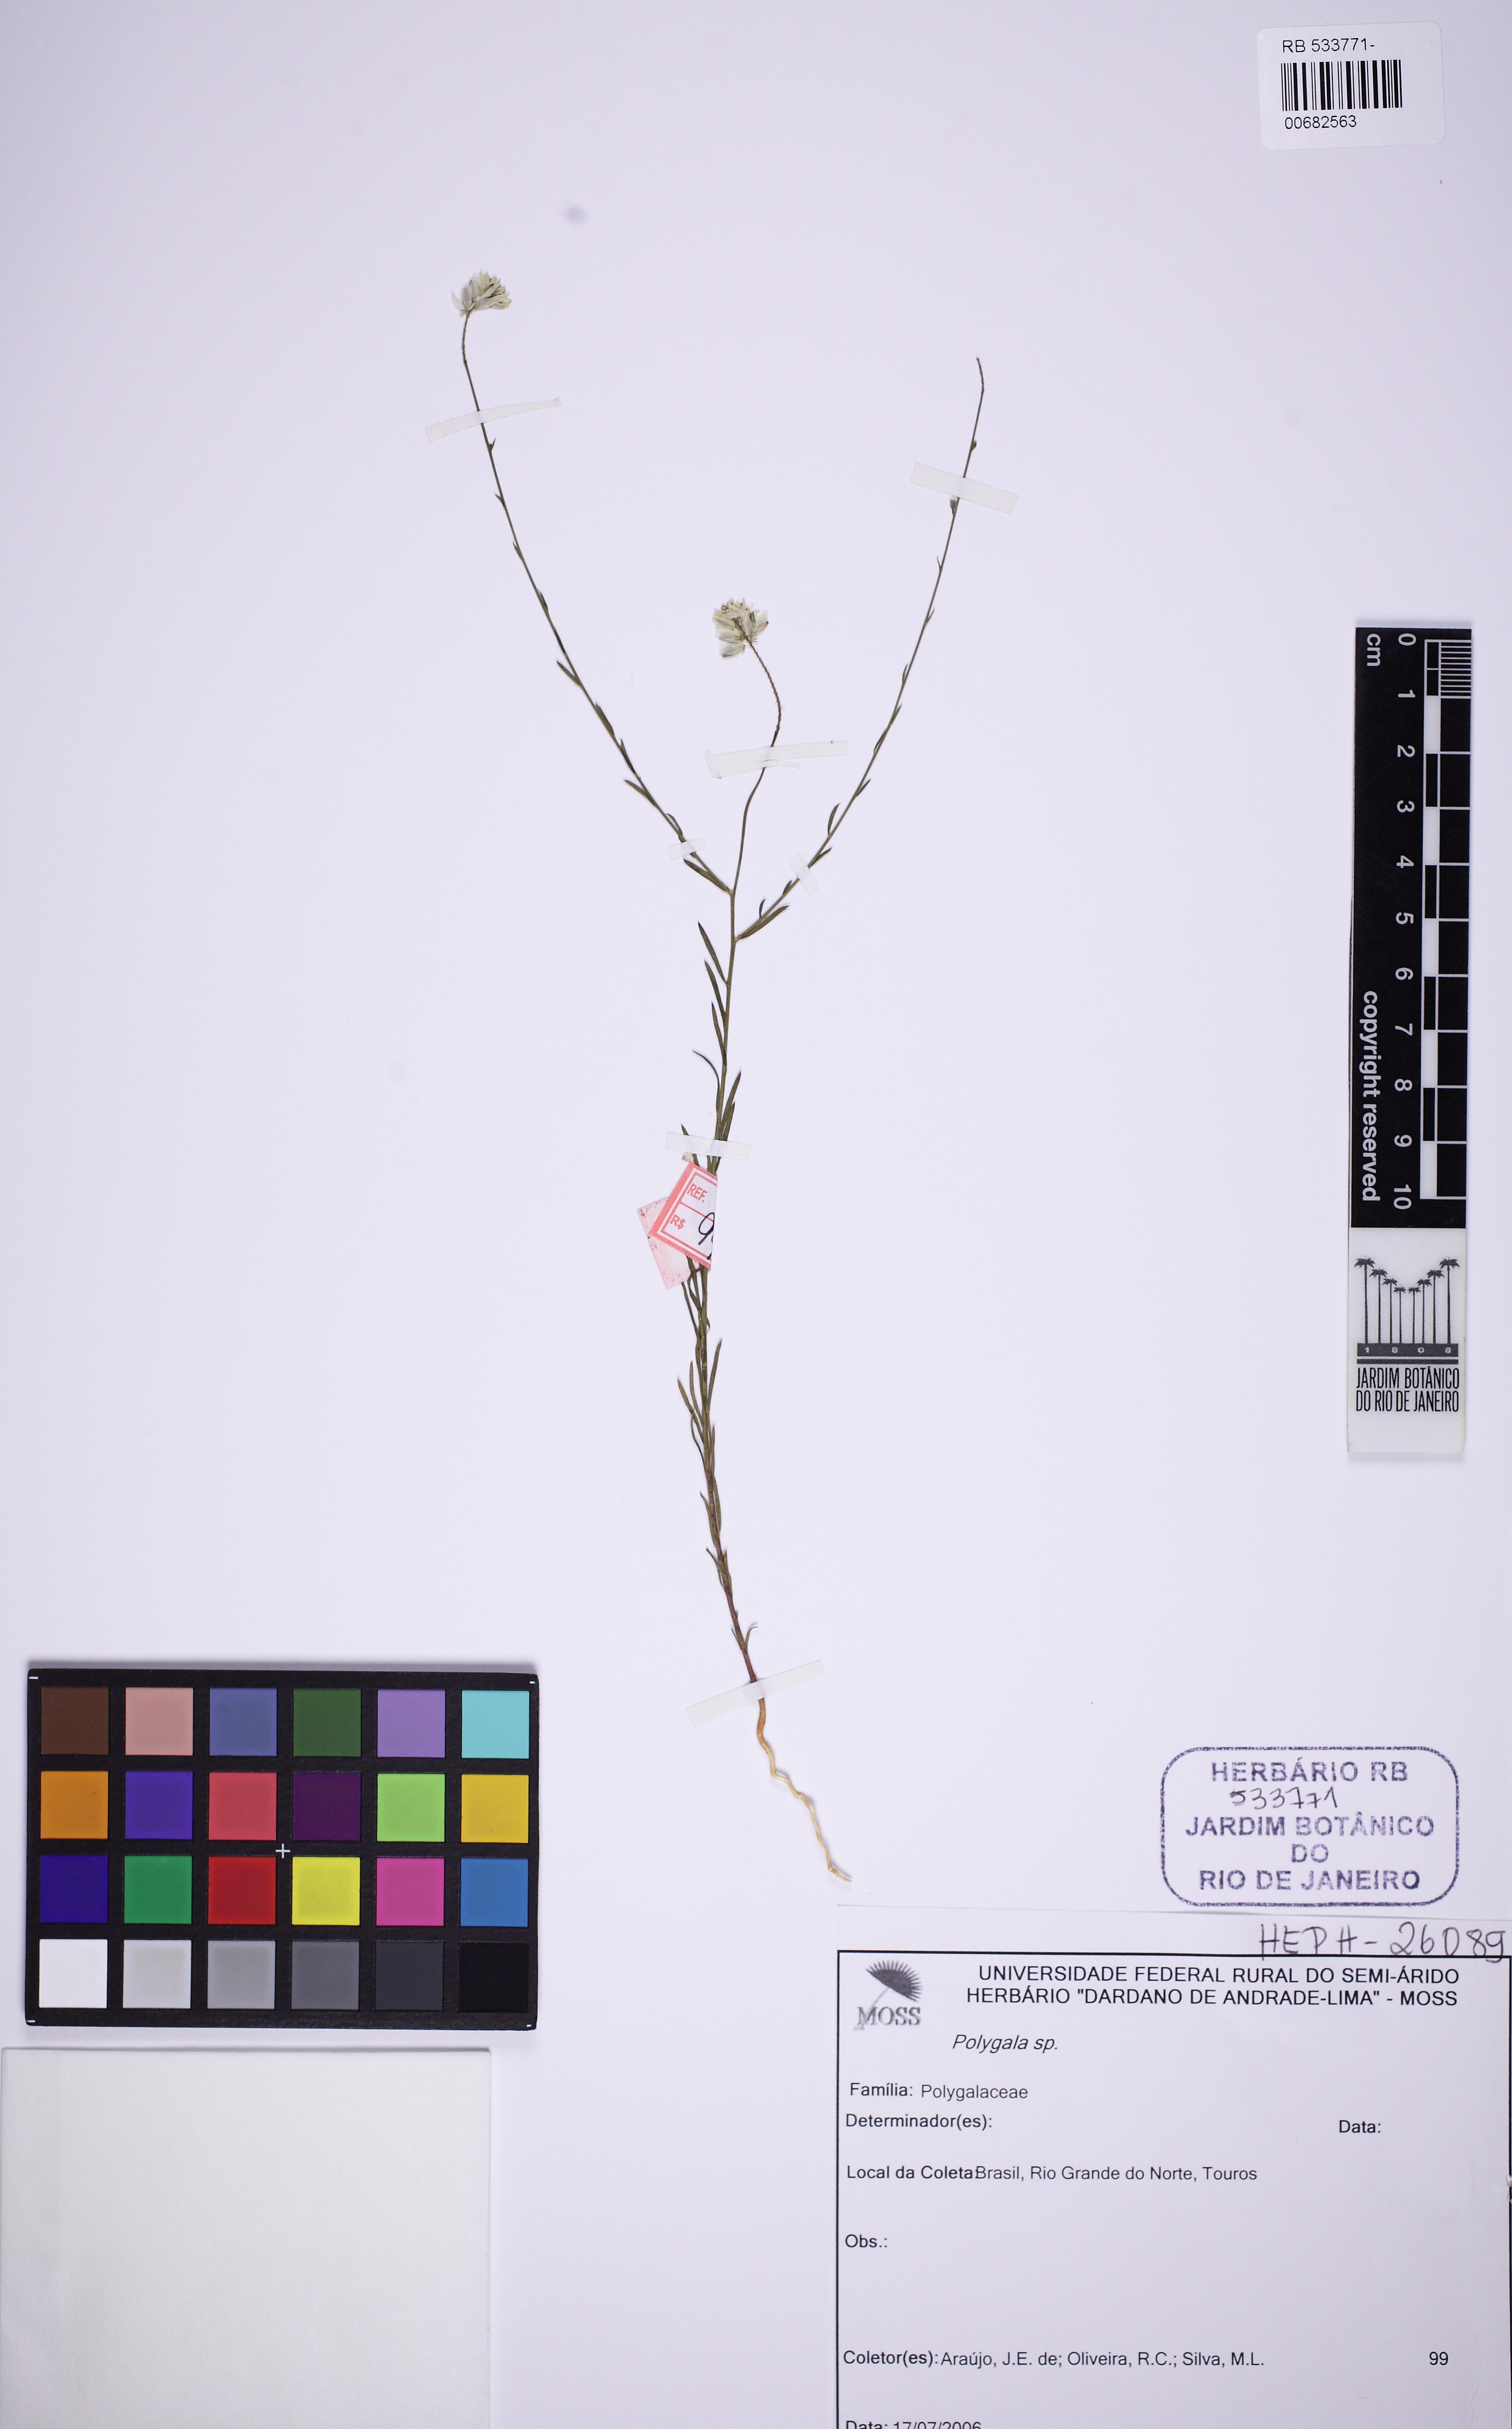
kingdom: Plantae
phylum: Tracheophyta
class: Magnoliopsida
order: Fabales
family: Polygalaceae
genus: Polygala
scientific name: Polygala trichosperma
